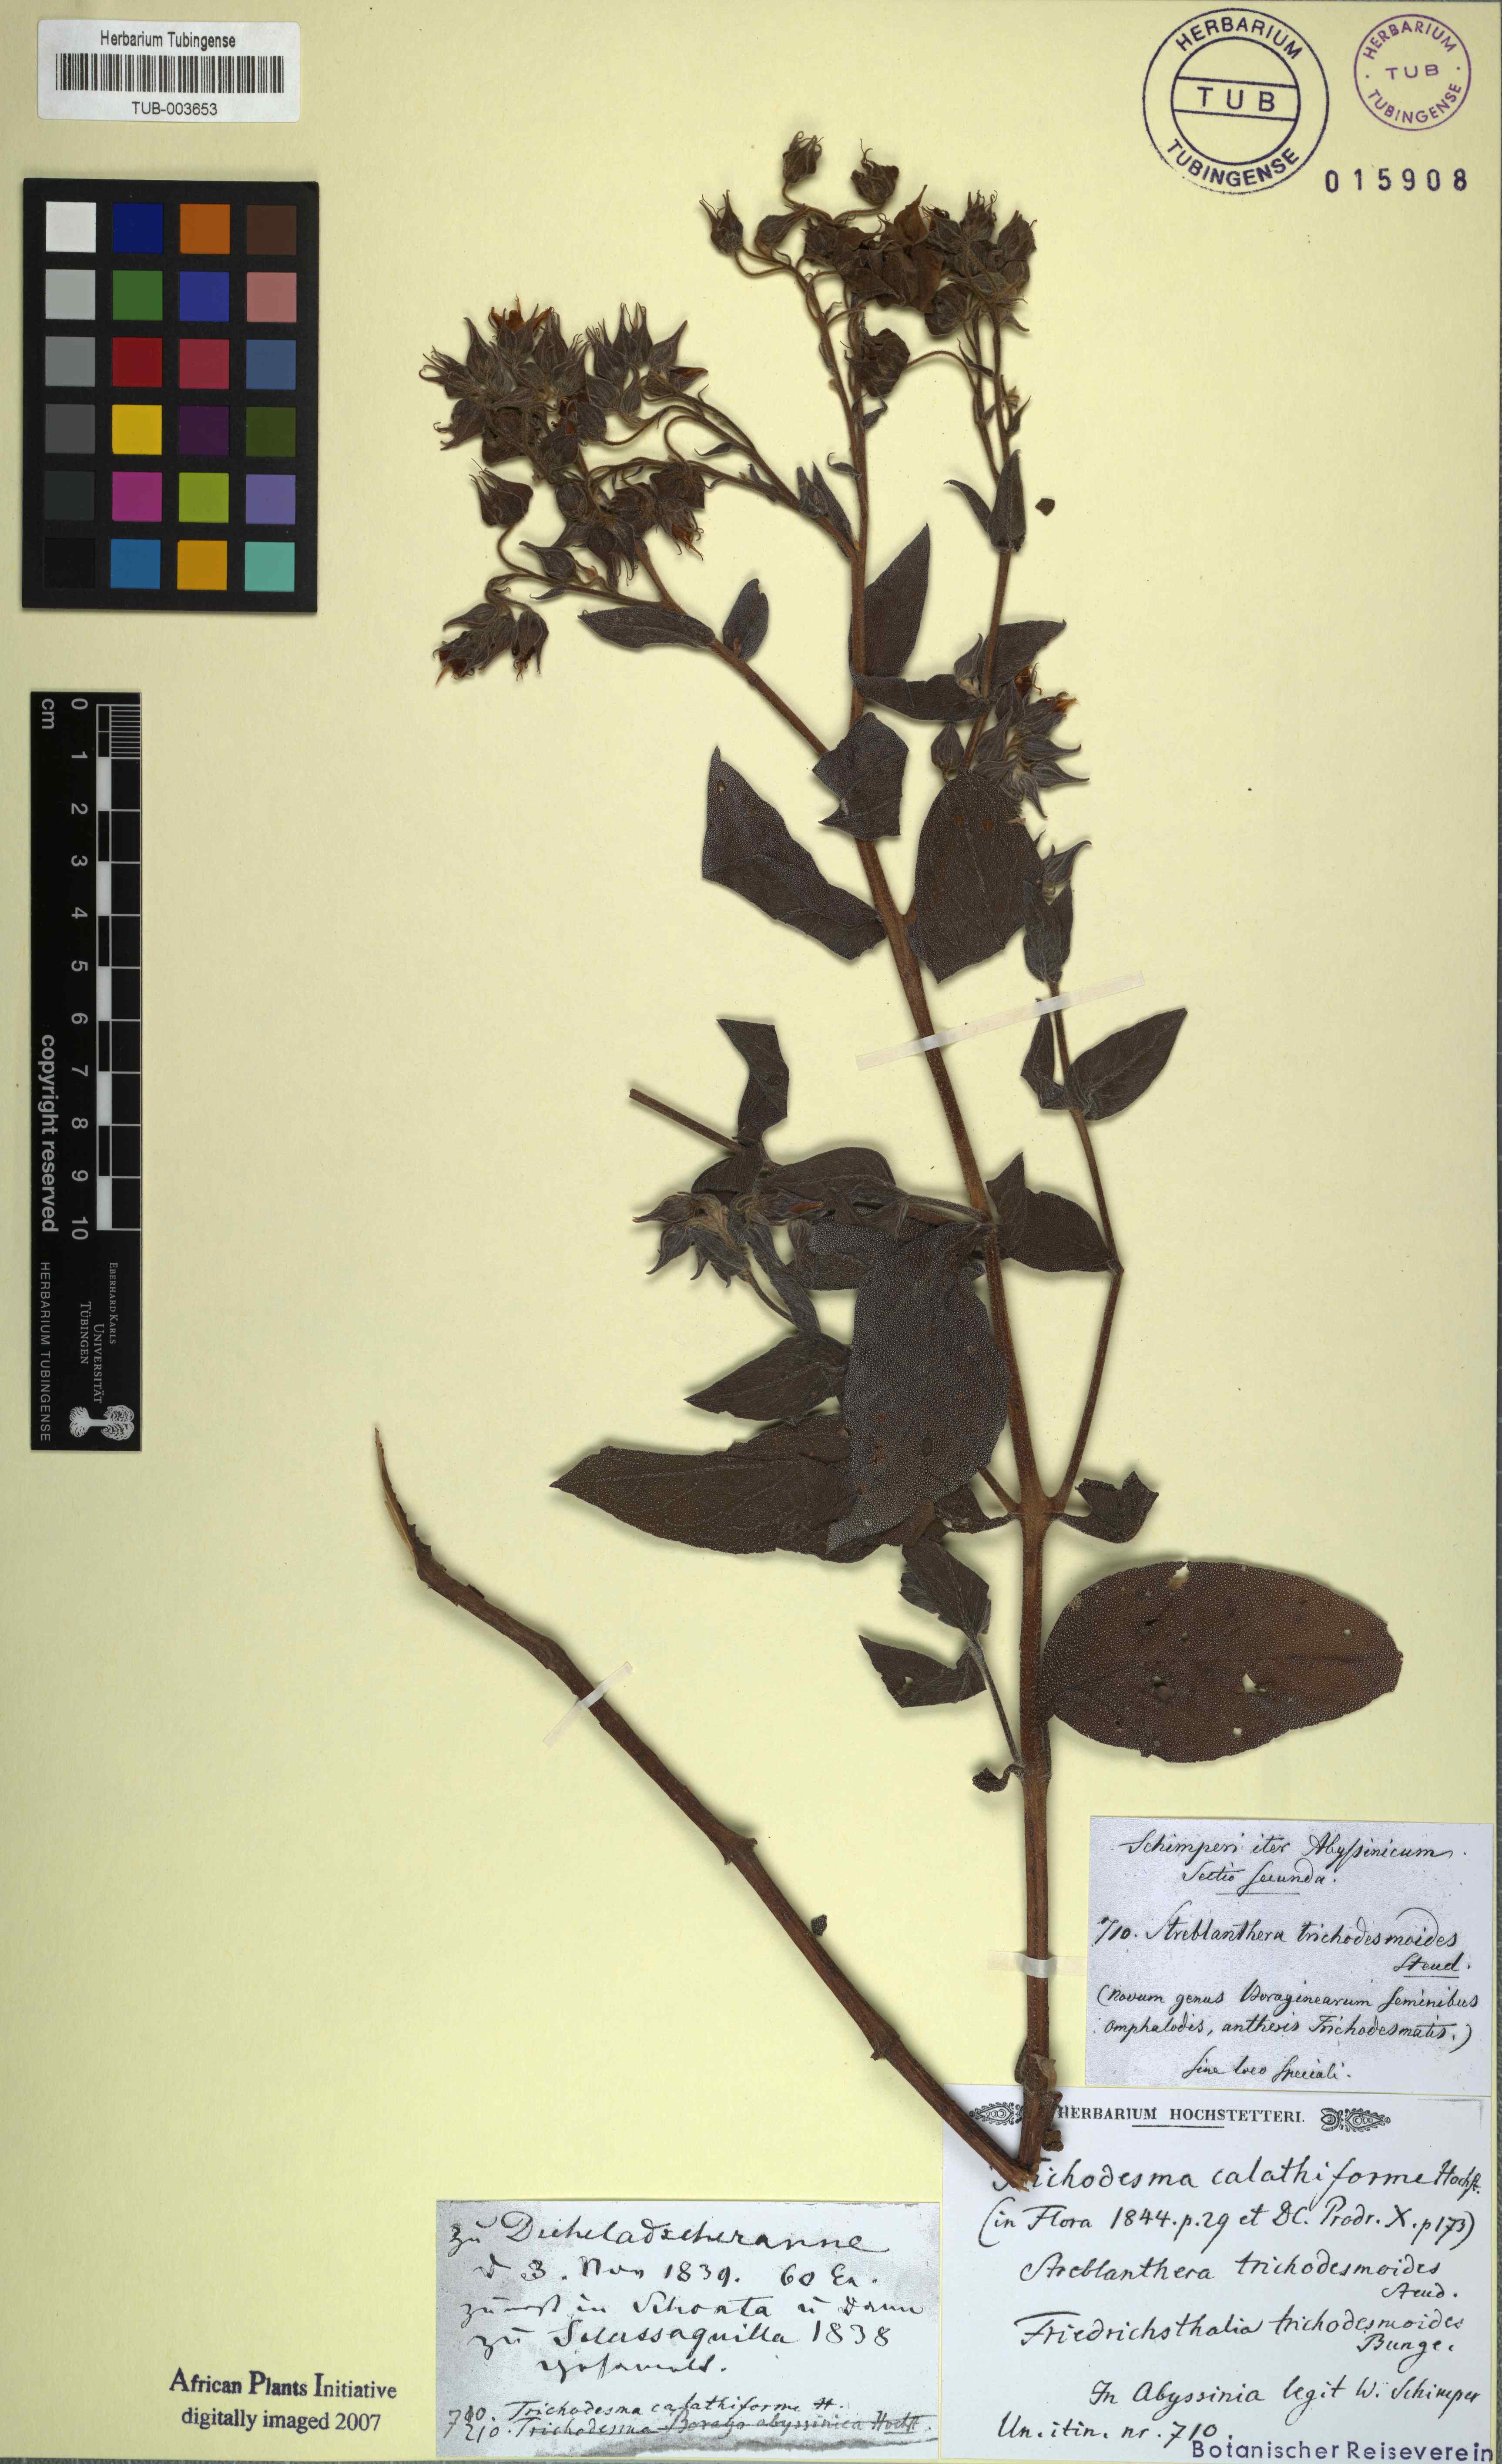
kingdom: Plantae
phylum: Tracheophyta
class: Magnoliopsida
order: Boraginales
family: Boraginaceae
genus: Trichodesma
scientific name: Trichodesma trichodesmoides
